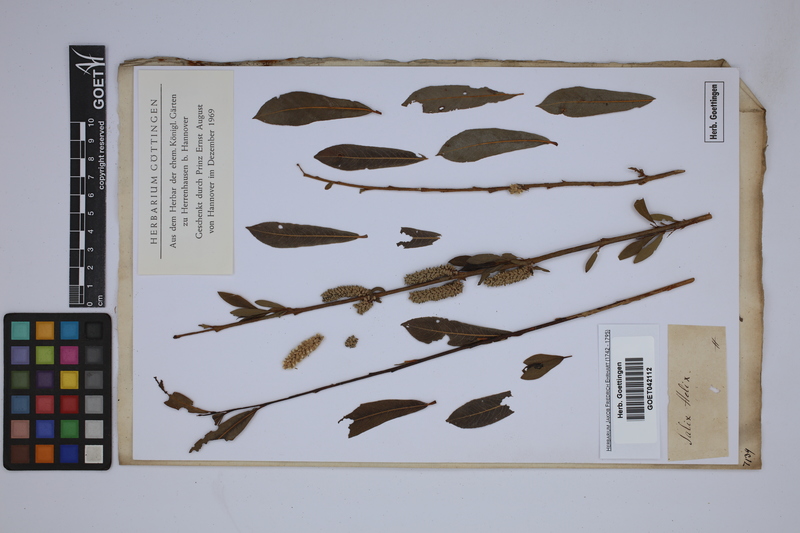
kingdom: Plantae
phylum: Tracheophyta
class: Magnoliopsida
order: Malpighiales
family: Salicaceae
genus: Salix
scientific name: Salix purpurea
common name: Purple willow
